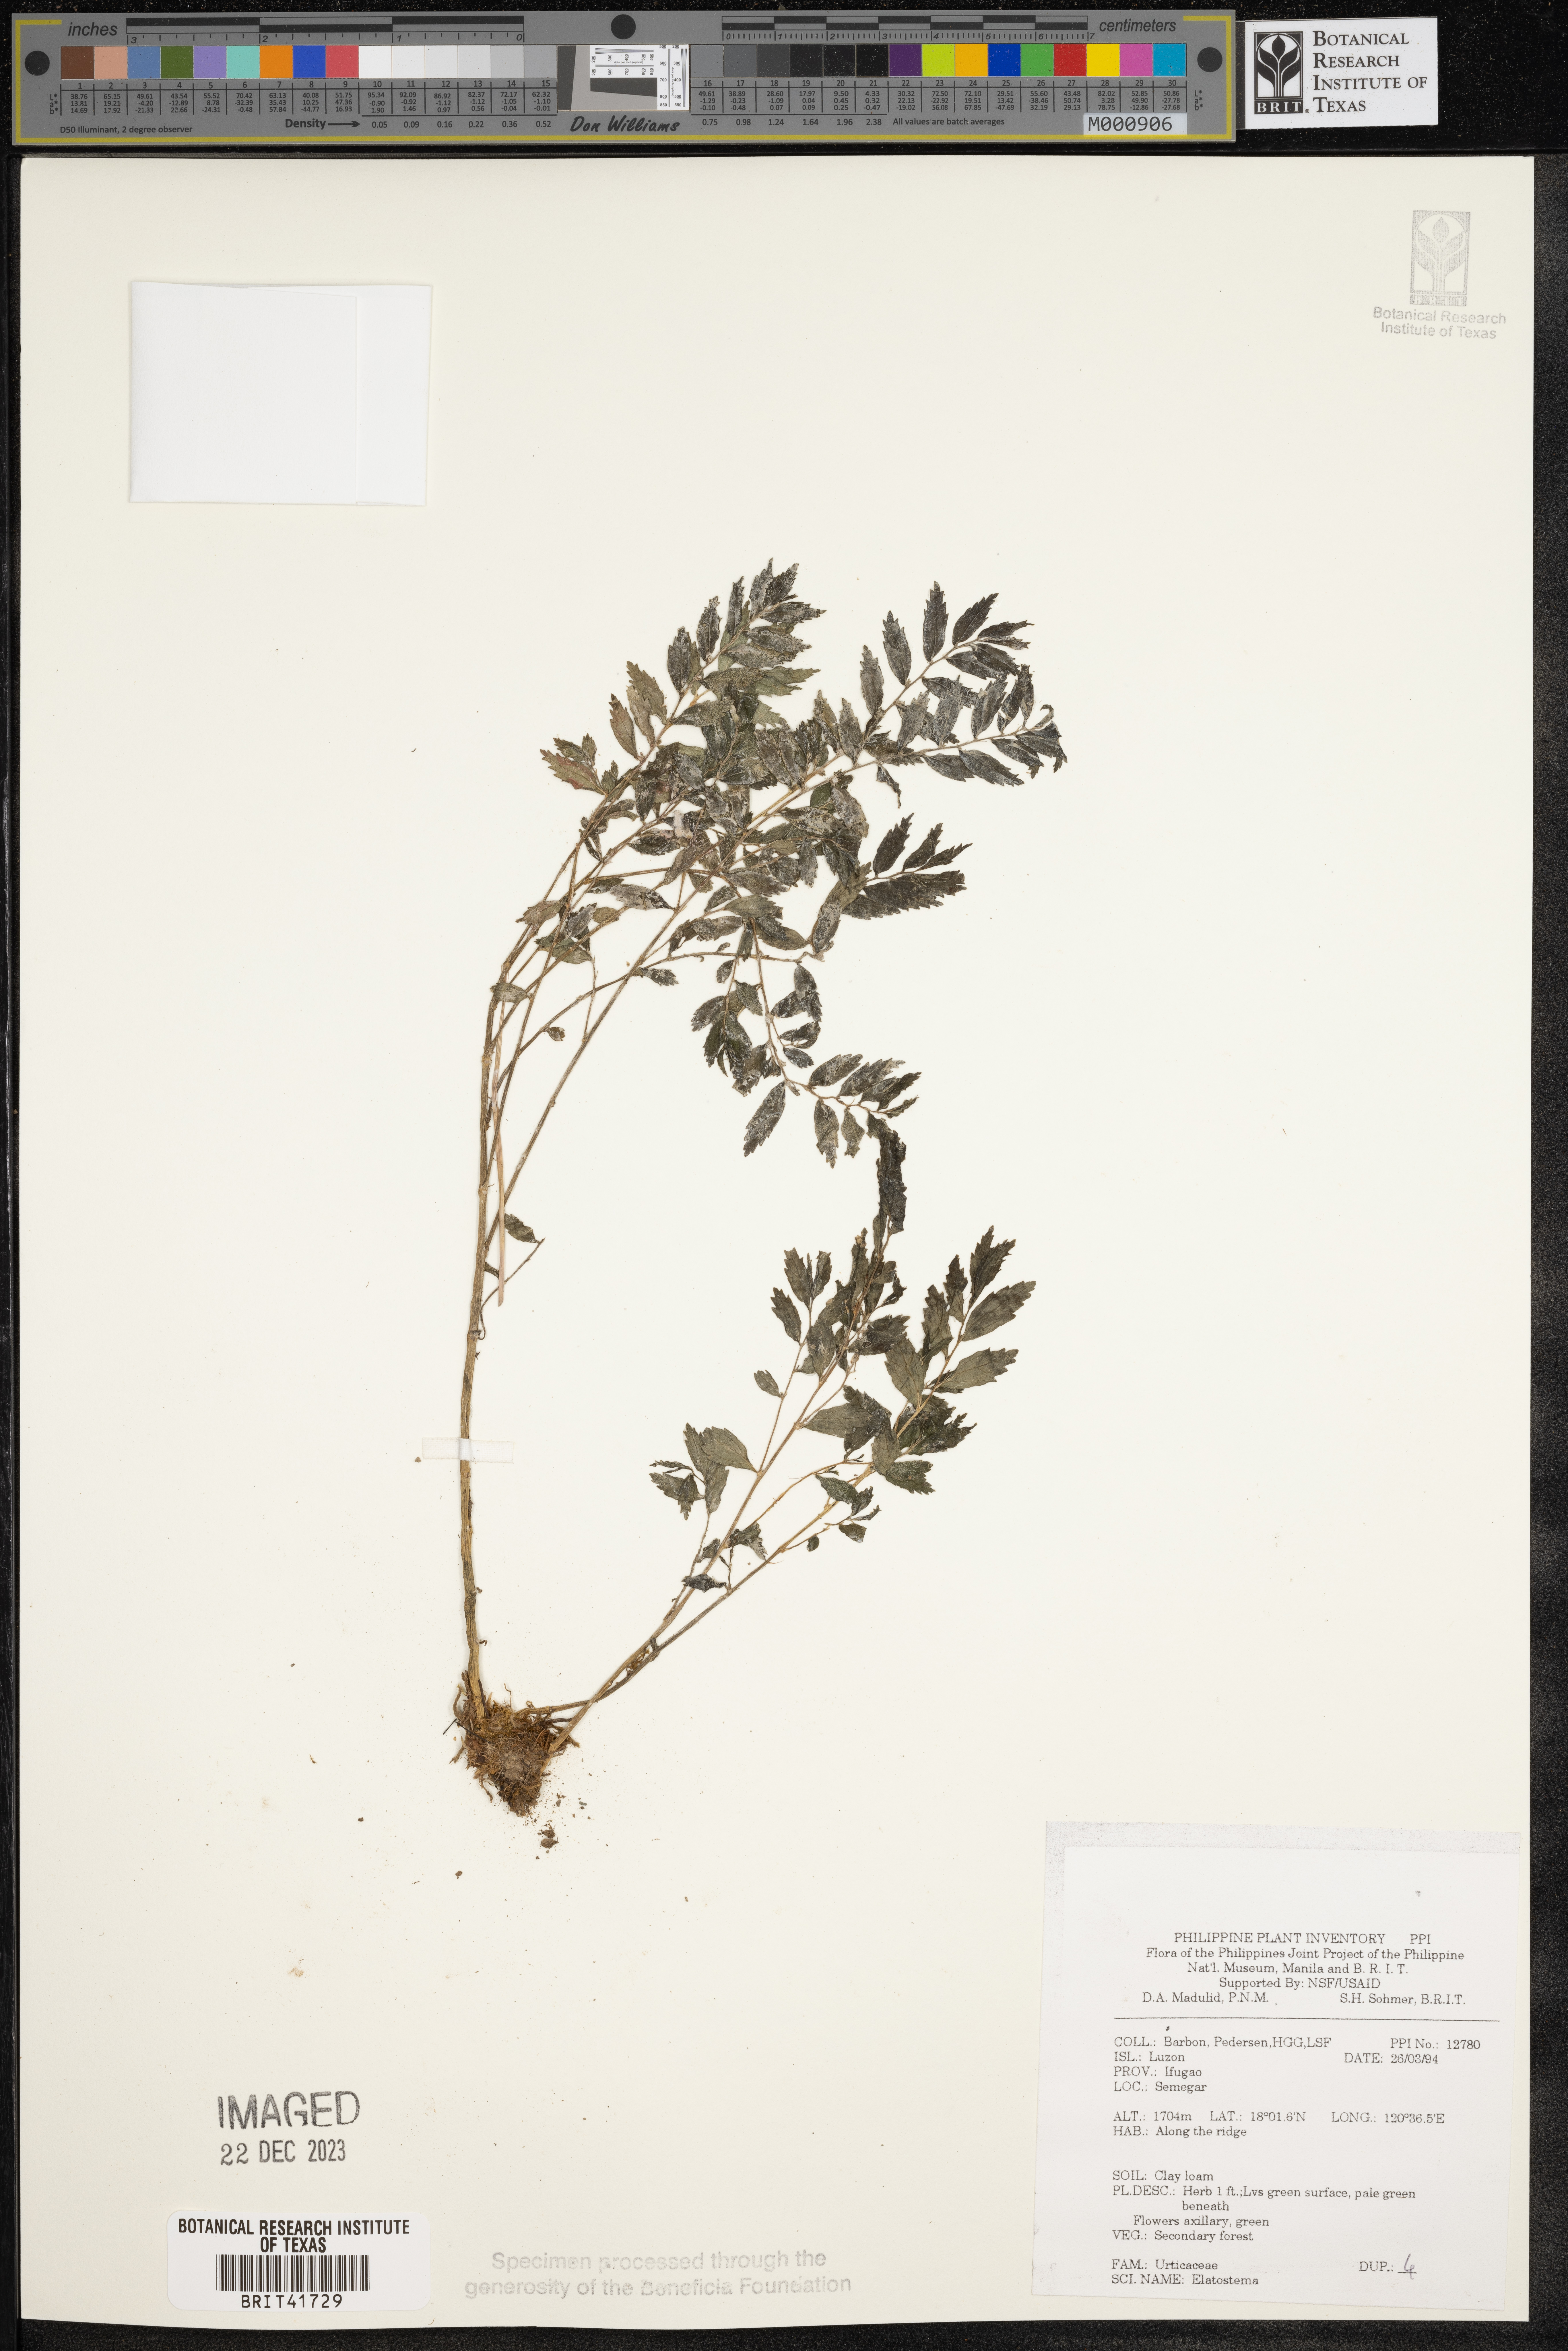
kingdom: Plantae
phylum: Tracheophyta
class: Magnoliopsida
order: Rosales
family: Urticaceae
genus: Elatostema
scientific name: Elatostema
